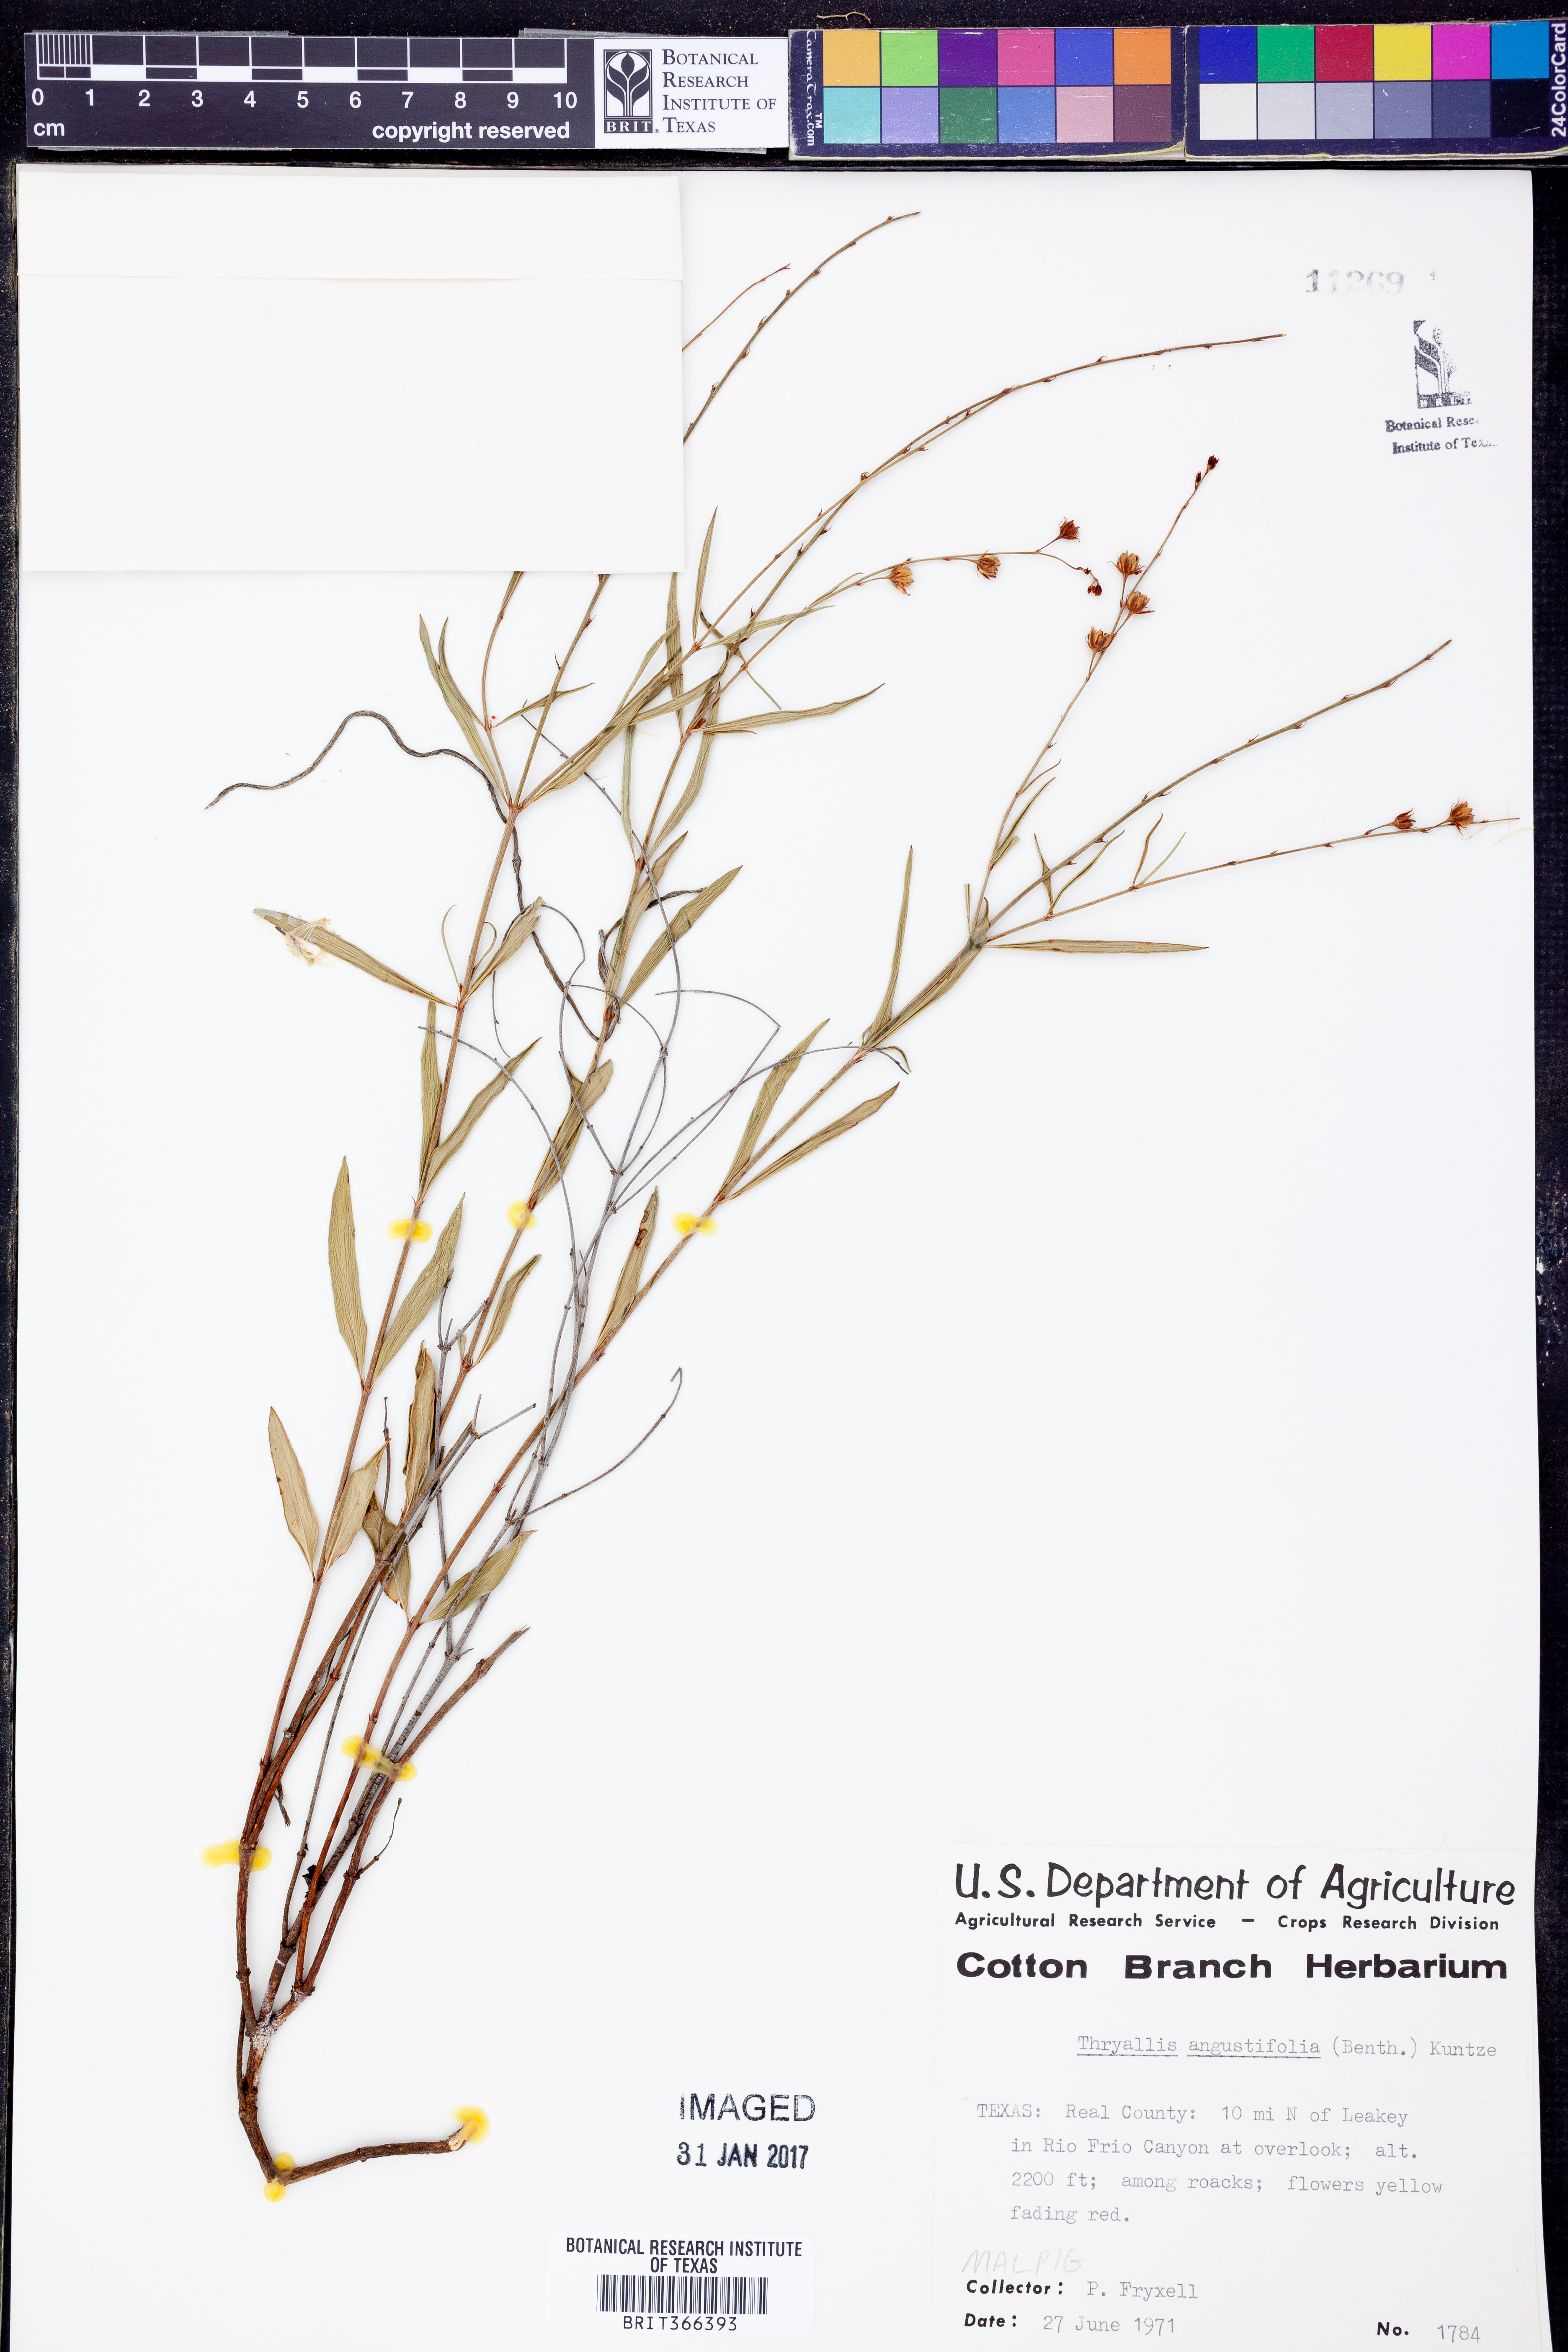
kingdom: Plantae
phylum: Tracheophyta
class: Magnoliopsida
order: Malpighiales
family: Malpighiaceae
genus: Galphimia
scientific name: Galphimia angustifolia
